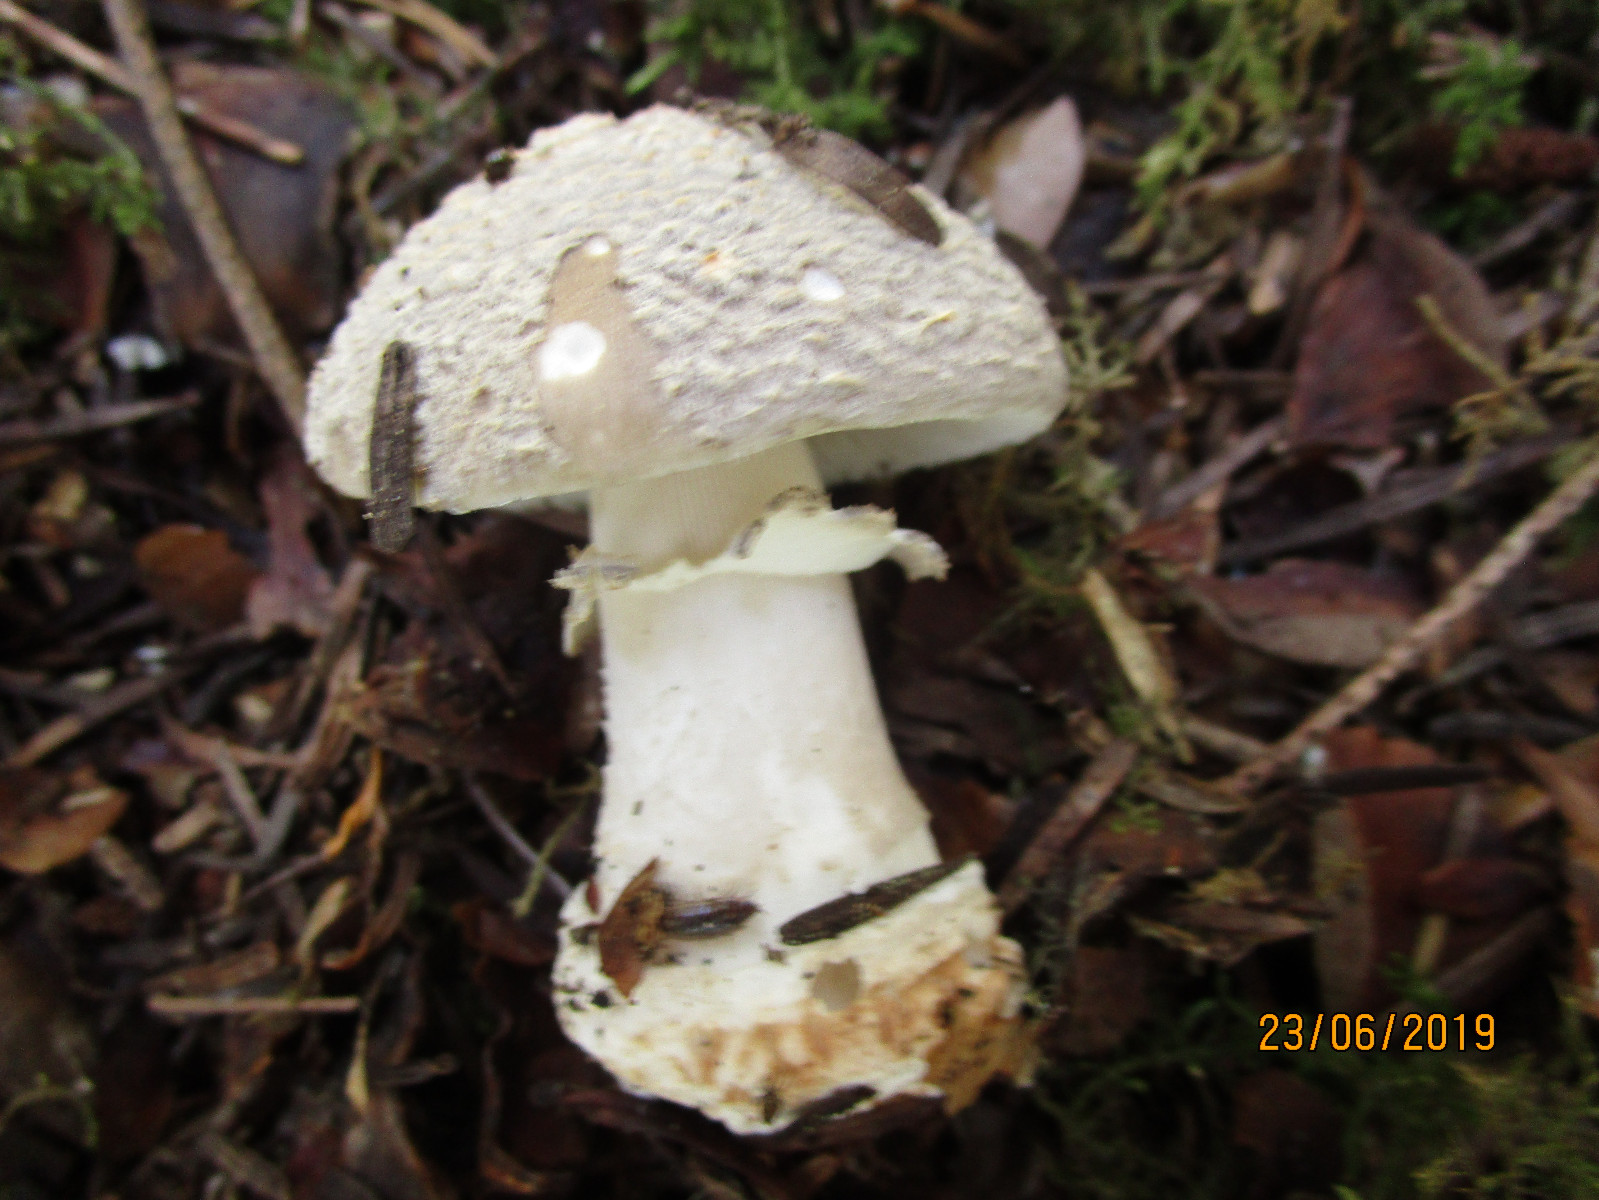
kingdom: Fungi
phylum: Basidiomycota
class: Agaricomycetes
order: Agaricales
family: Amanitaceae
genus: Amanita
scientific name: Amanita
